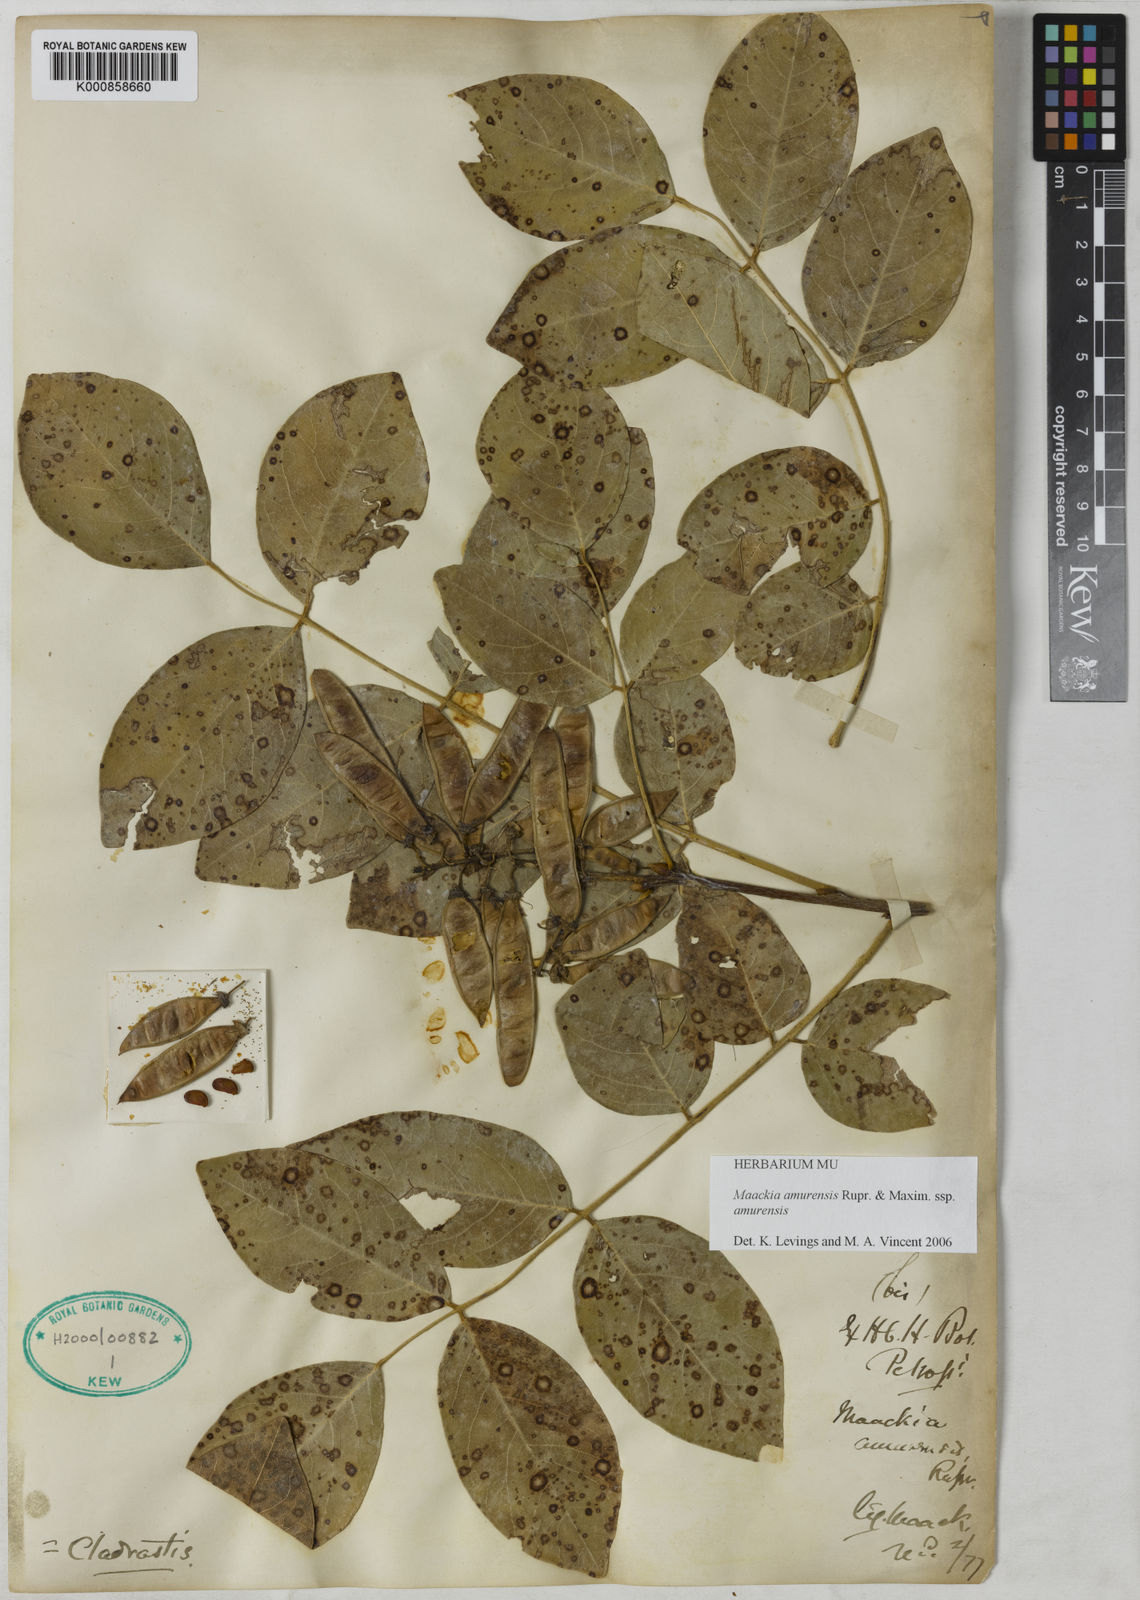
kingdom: Plantae
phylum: Tracheophyta
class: Magnoliopsida
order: Fabales
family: Fabaceae
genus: Maackia
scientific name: Maackia amurensis
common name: Amur maackia
